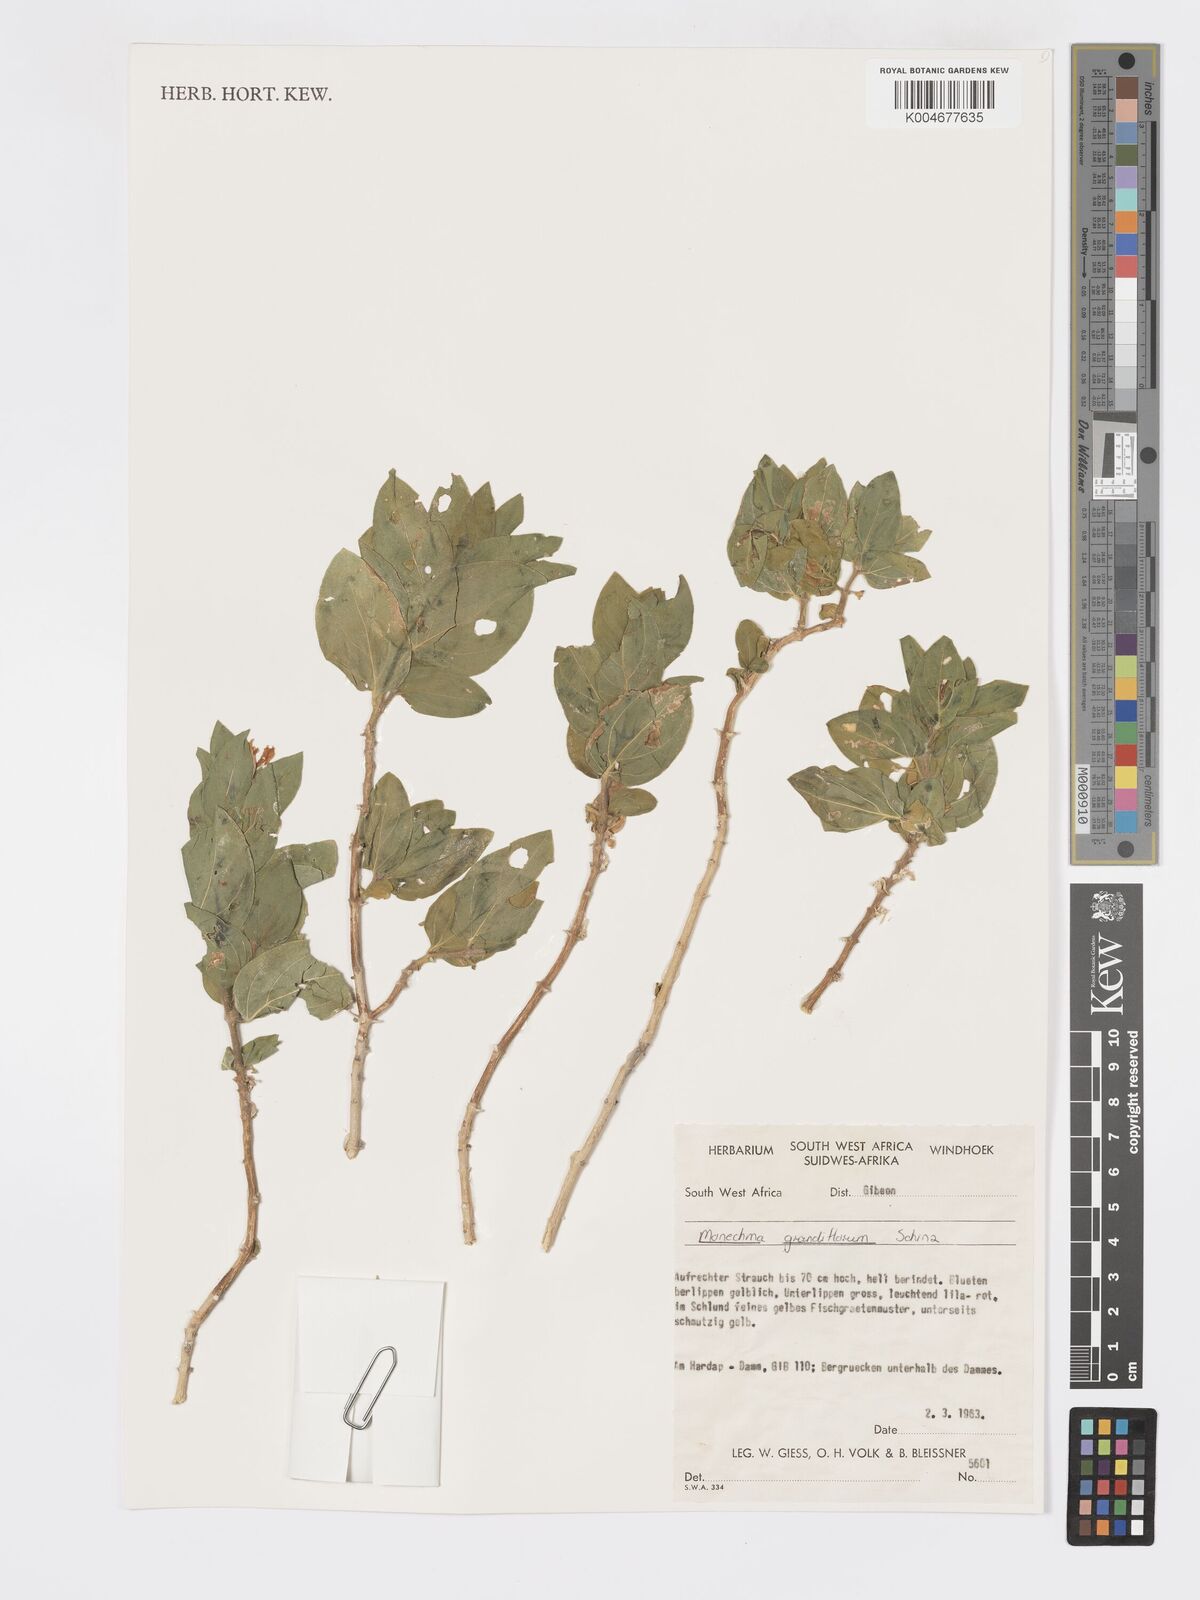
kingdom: Plantae
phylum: Tracheophyta
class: Magnoliopsida
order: Lamiales
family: Acanthaceae
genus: Pogonospermum
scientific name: Pogonospermum
